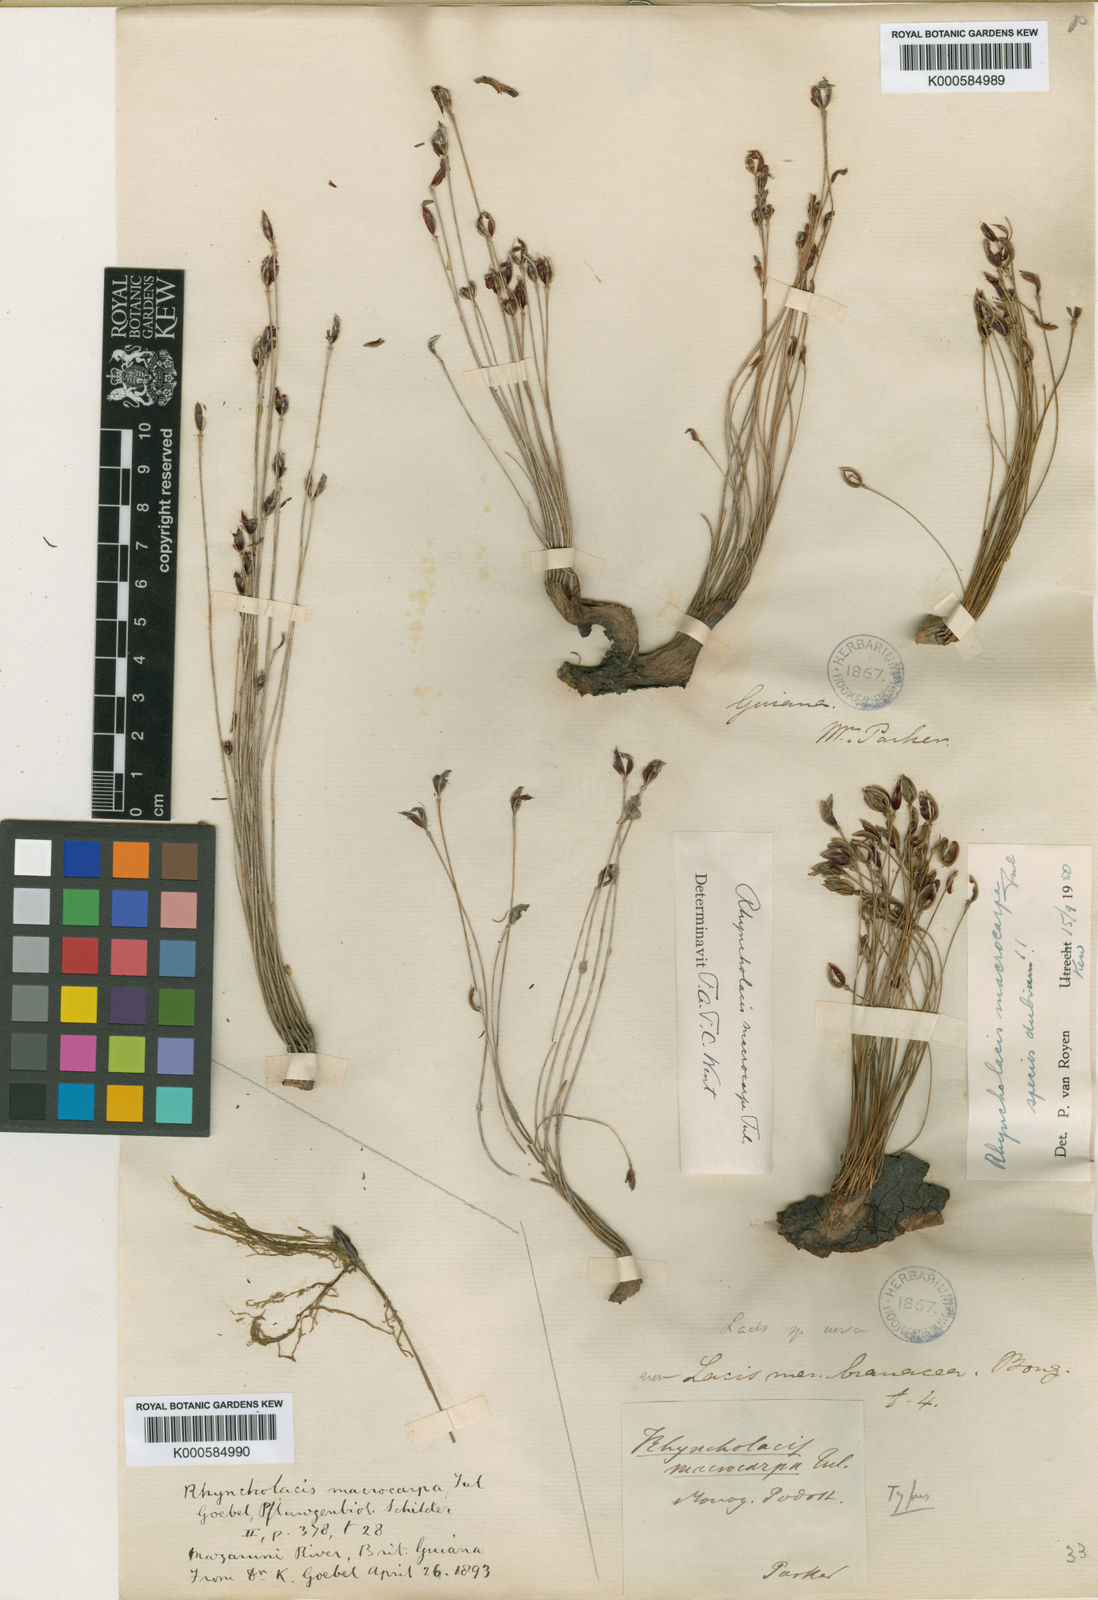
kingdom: Plantae
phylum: Tracheophyta
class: Magnoliopsida
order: Malpighiales
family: Podostemaceae
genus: Rhyncholacis
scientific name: Rhyncholacis macrocarpa
